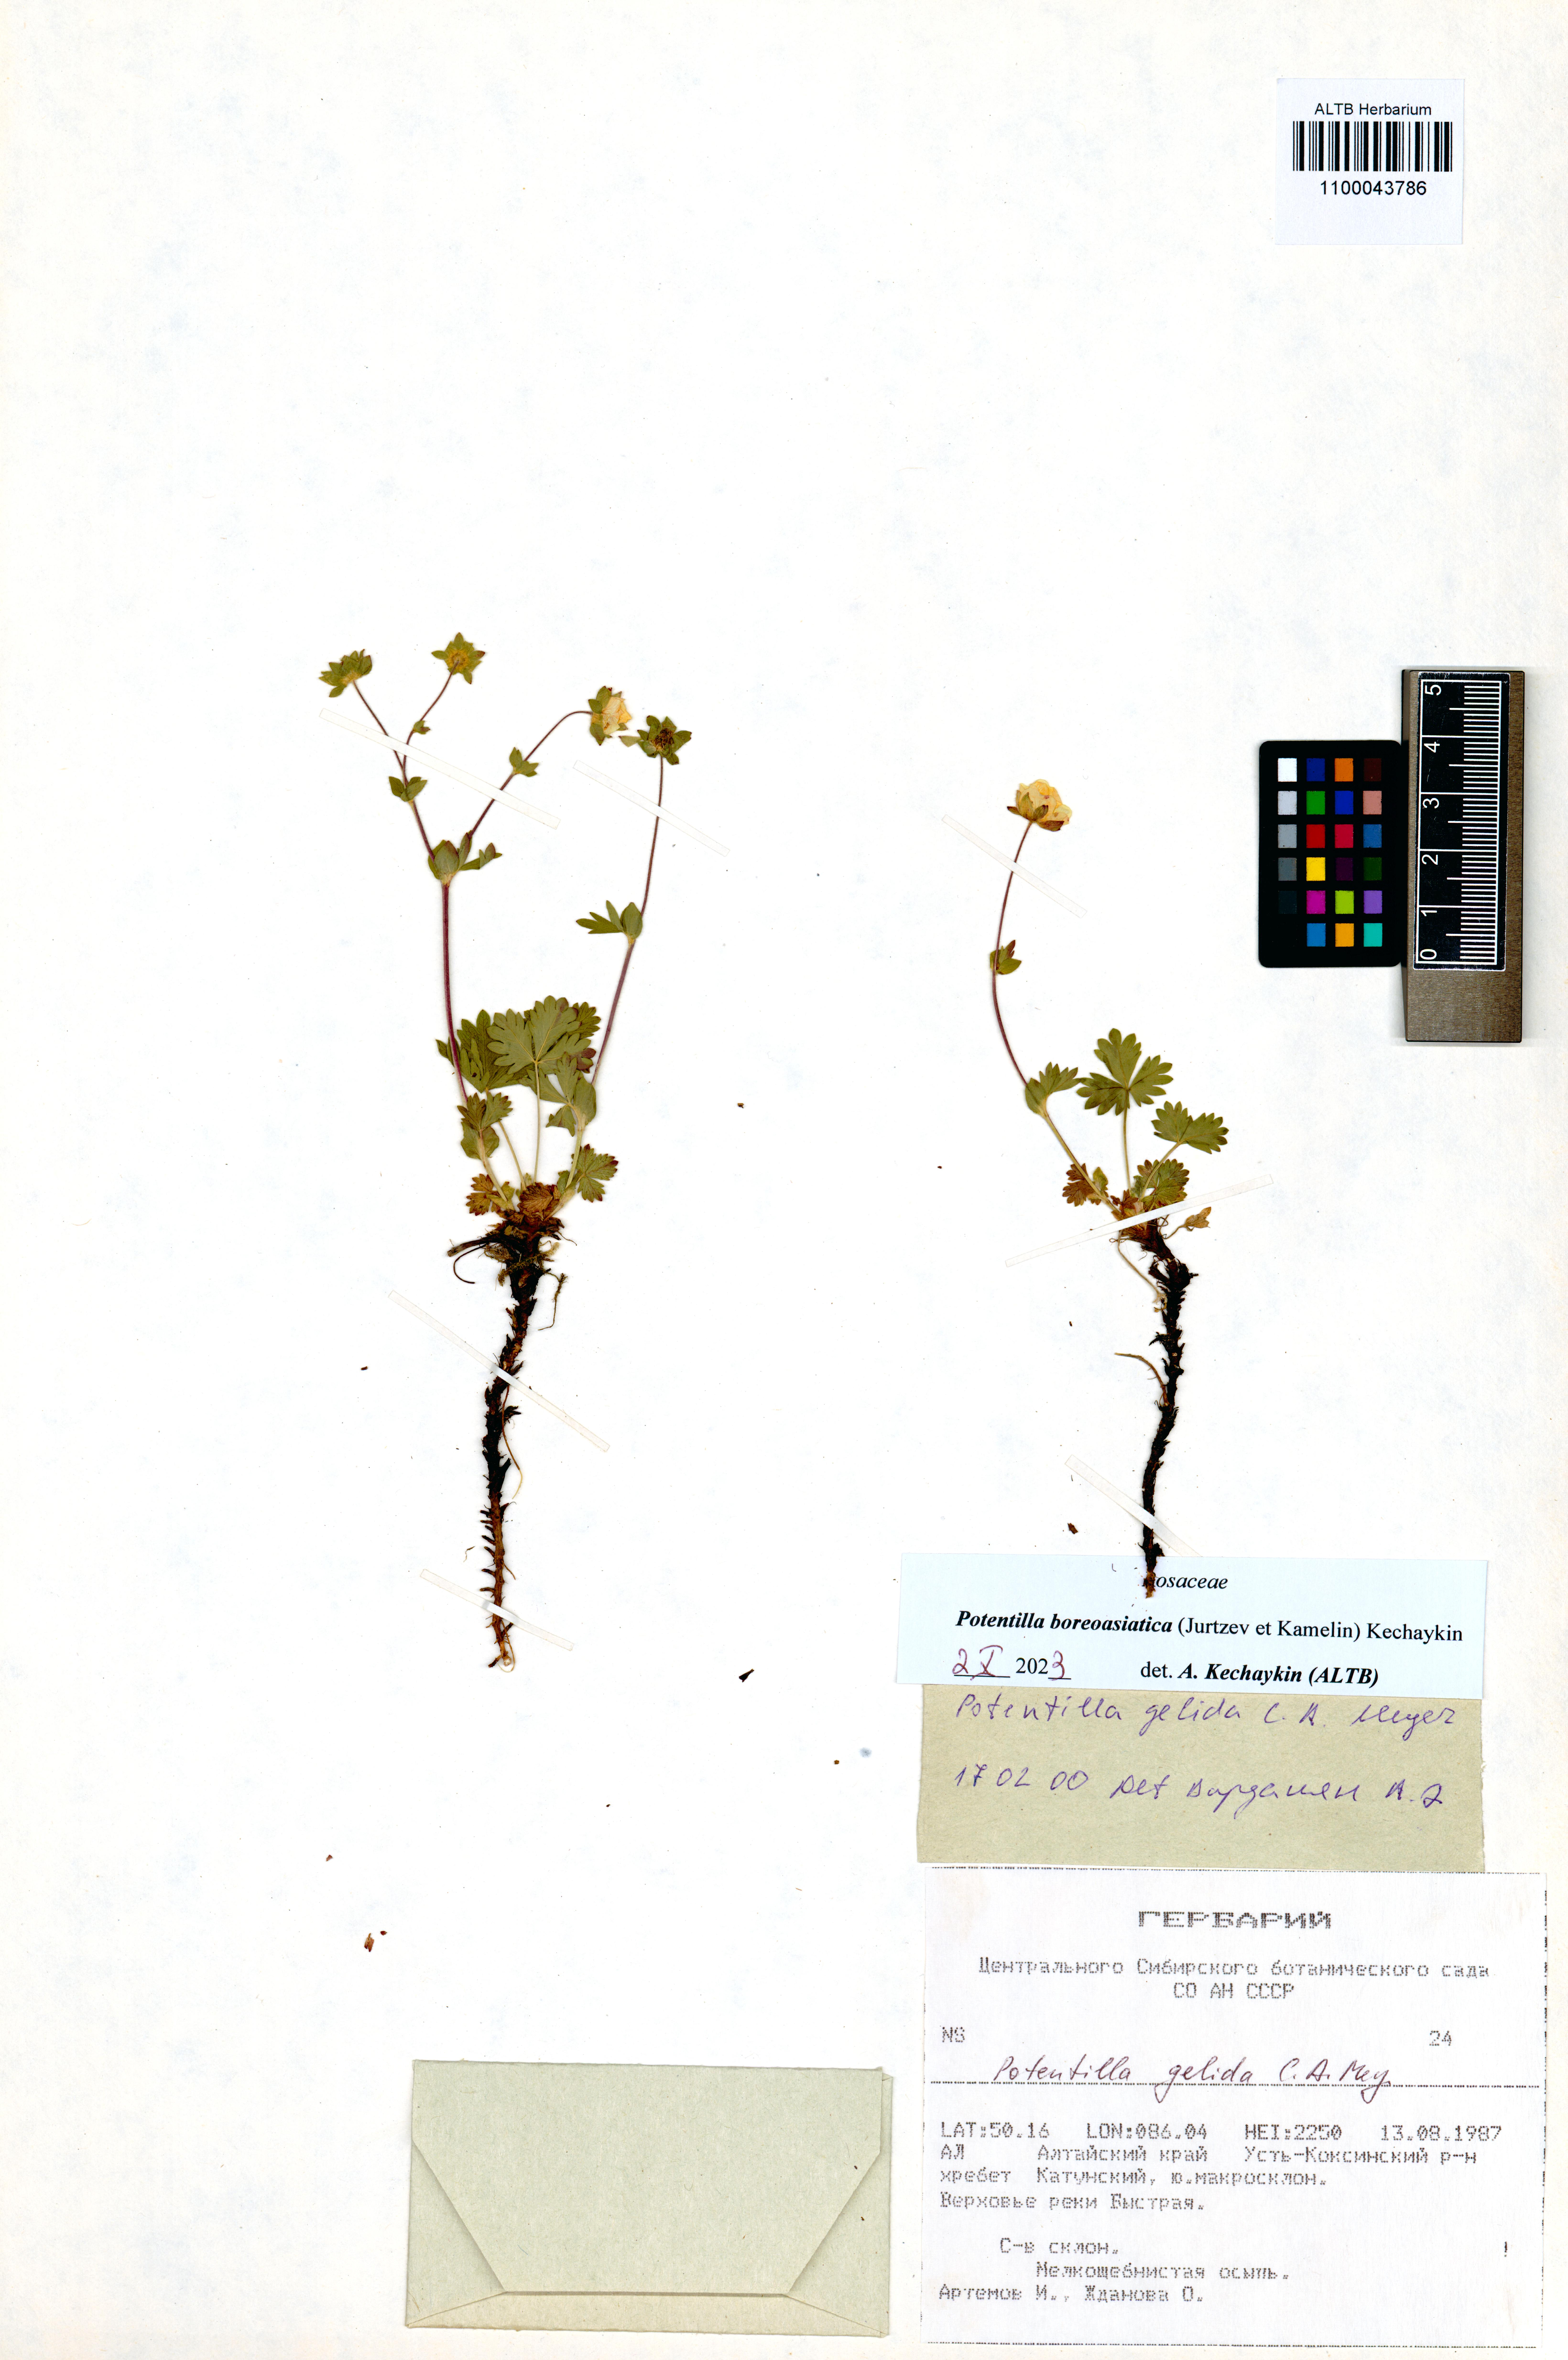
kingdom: Plantae
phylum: Tracheophyta
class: Magnoliopsida
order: Rosales
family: Rosaceae
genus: Potentilla
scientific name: Potentilla
